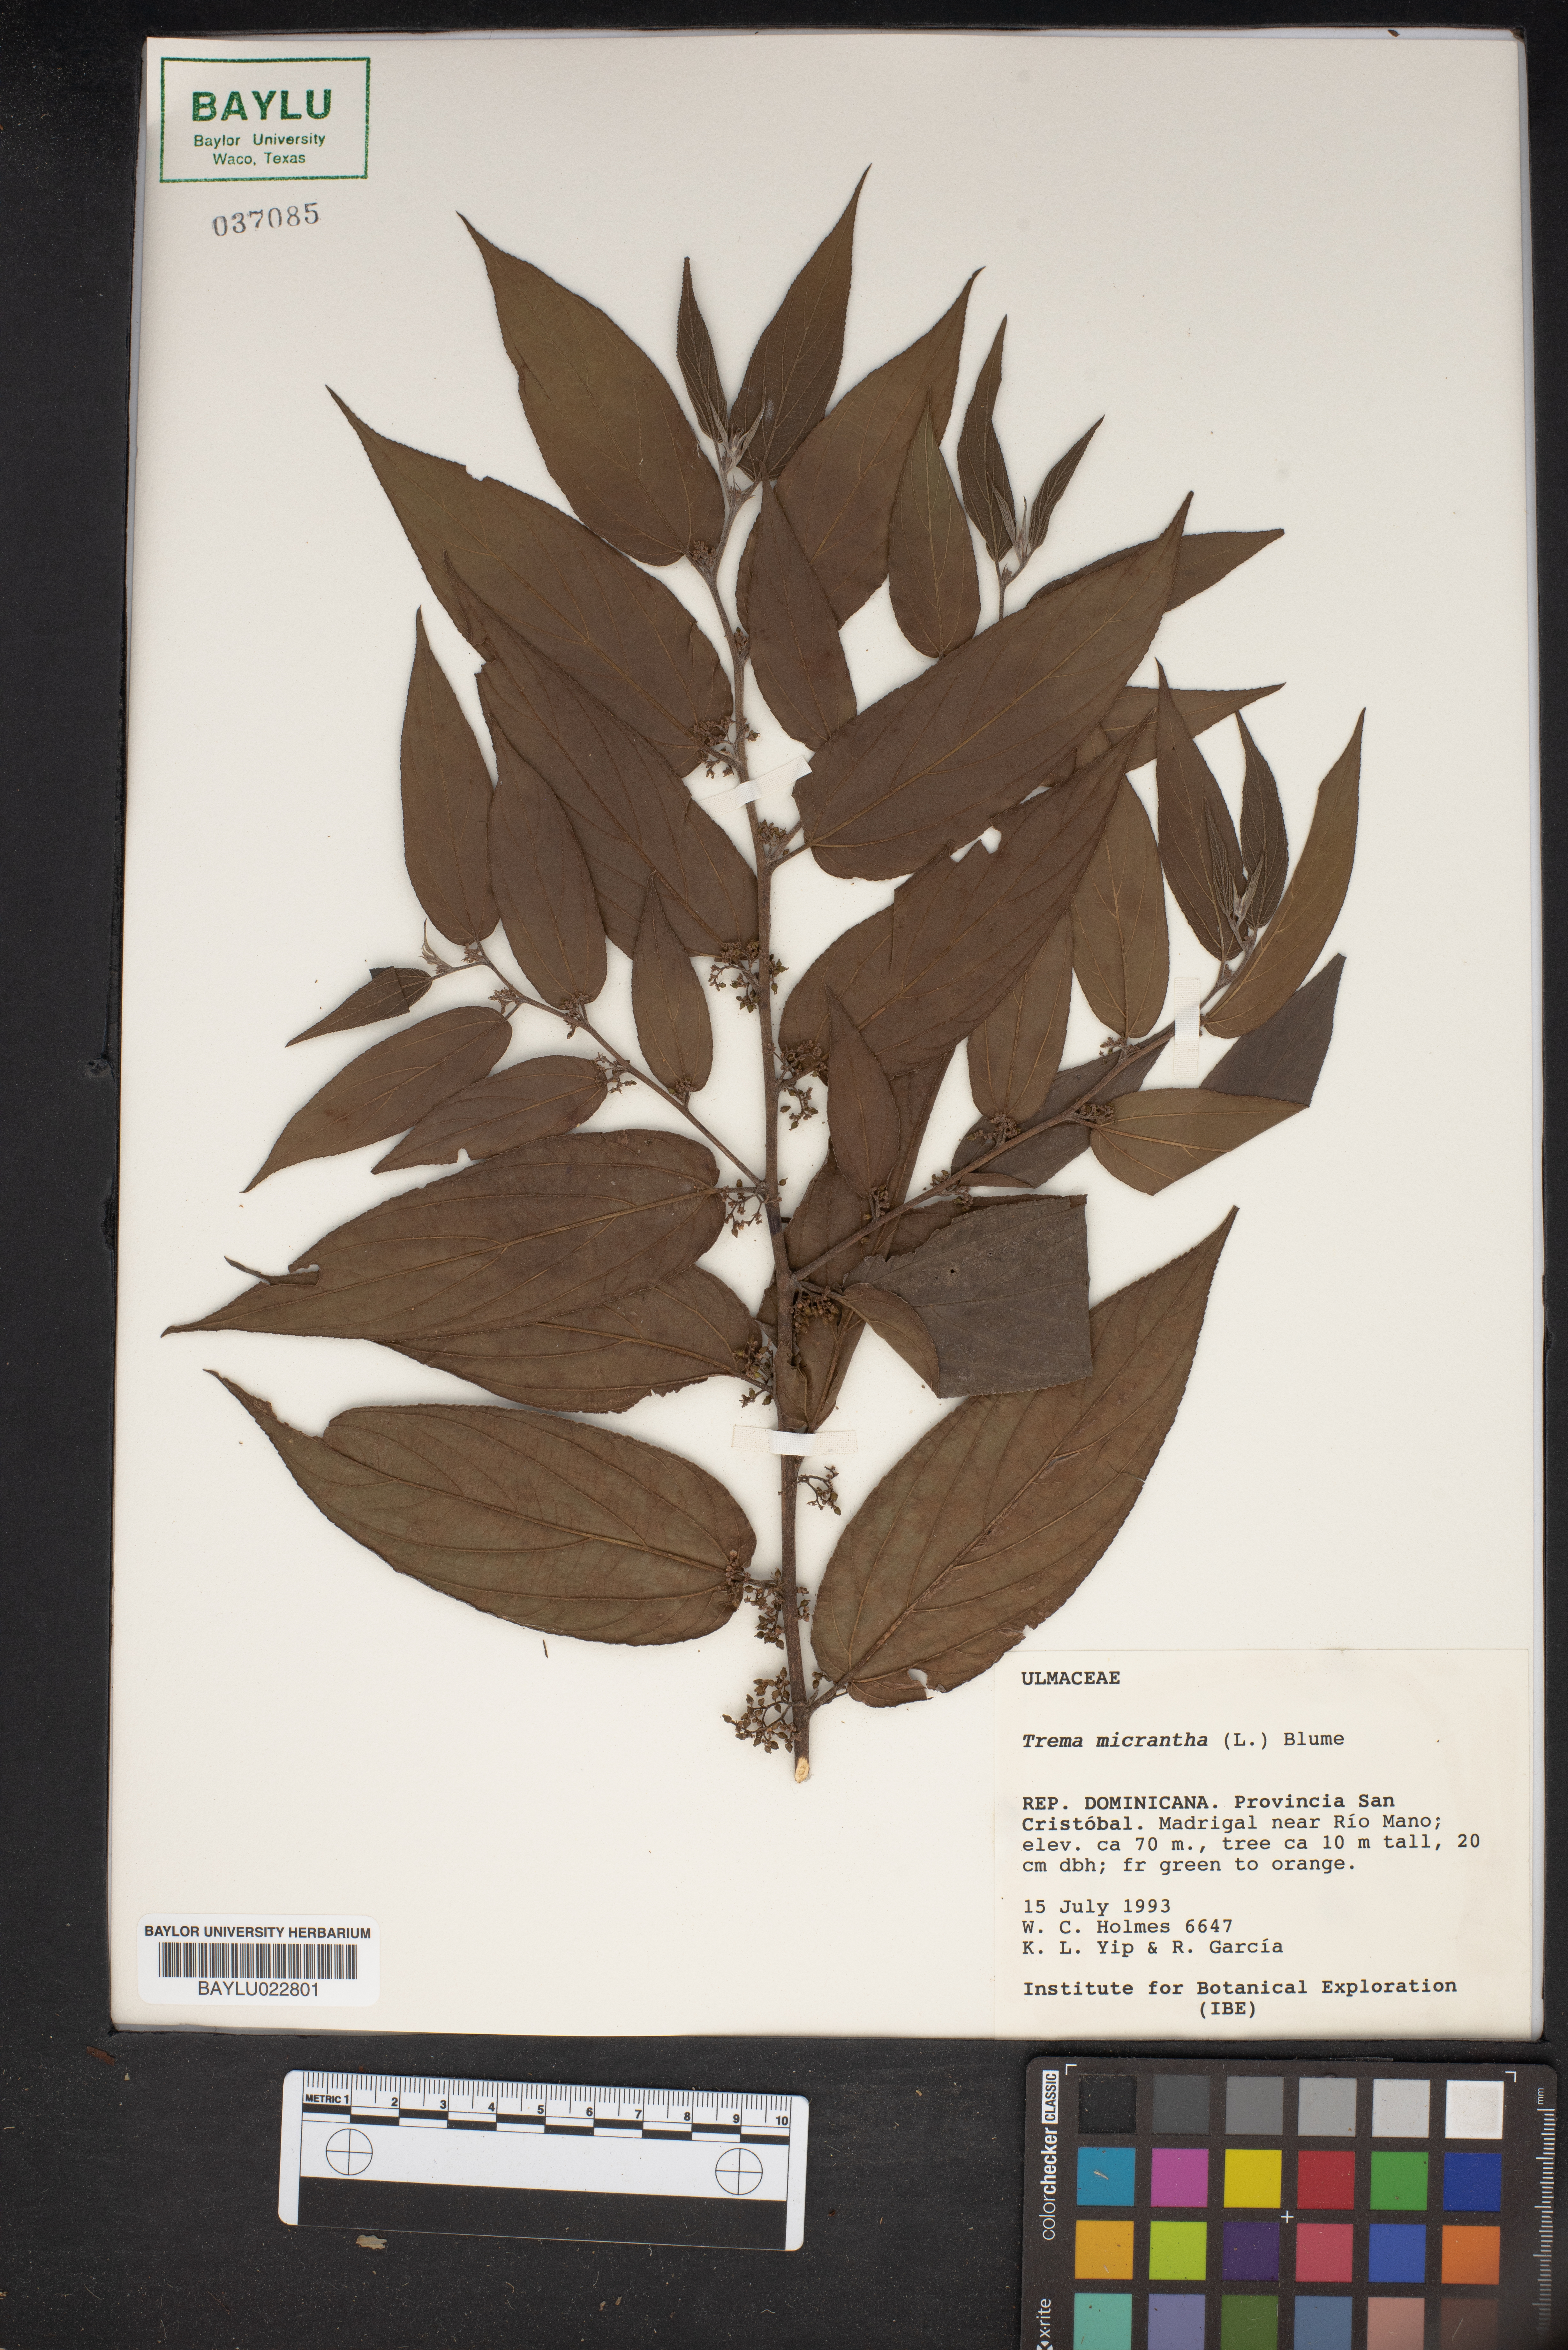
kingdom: Plantae
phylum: Tracheophyta
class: Magnoliopsida
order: Rosales
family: Cannabaceae
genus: Trema
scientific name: Trema micranthum
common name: Jamaican nettletree
